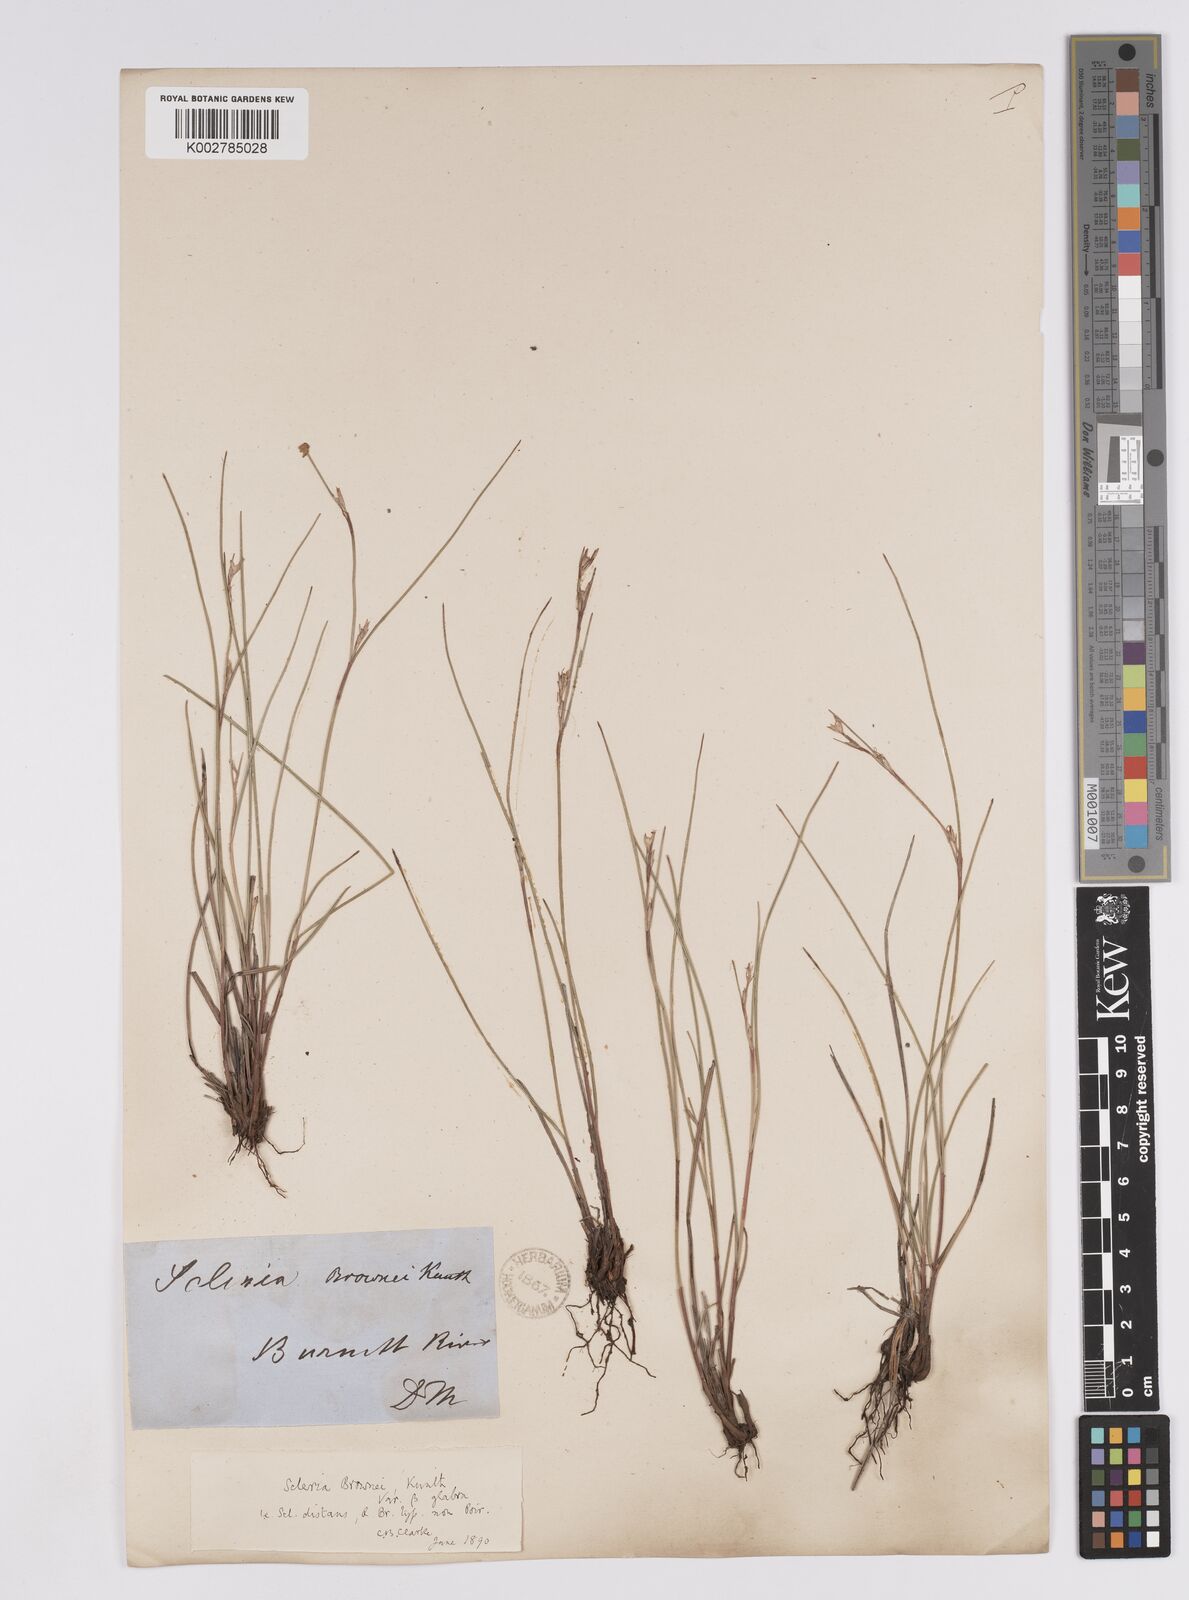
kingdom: Plantae
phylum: Tracheophyta
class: Liliopsida
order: Poales
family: Cyperaceae
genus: Scleria
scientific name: Scleria brownii
